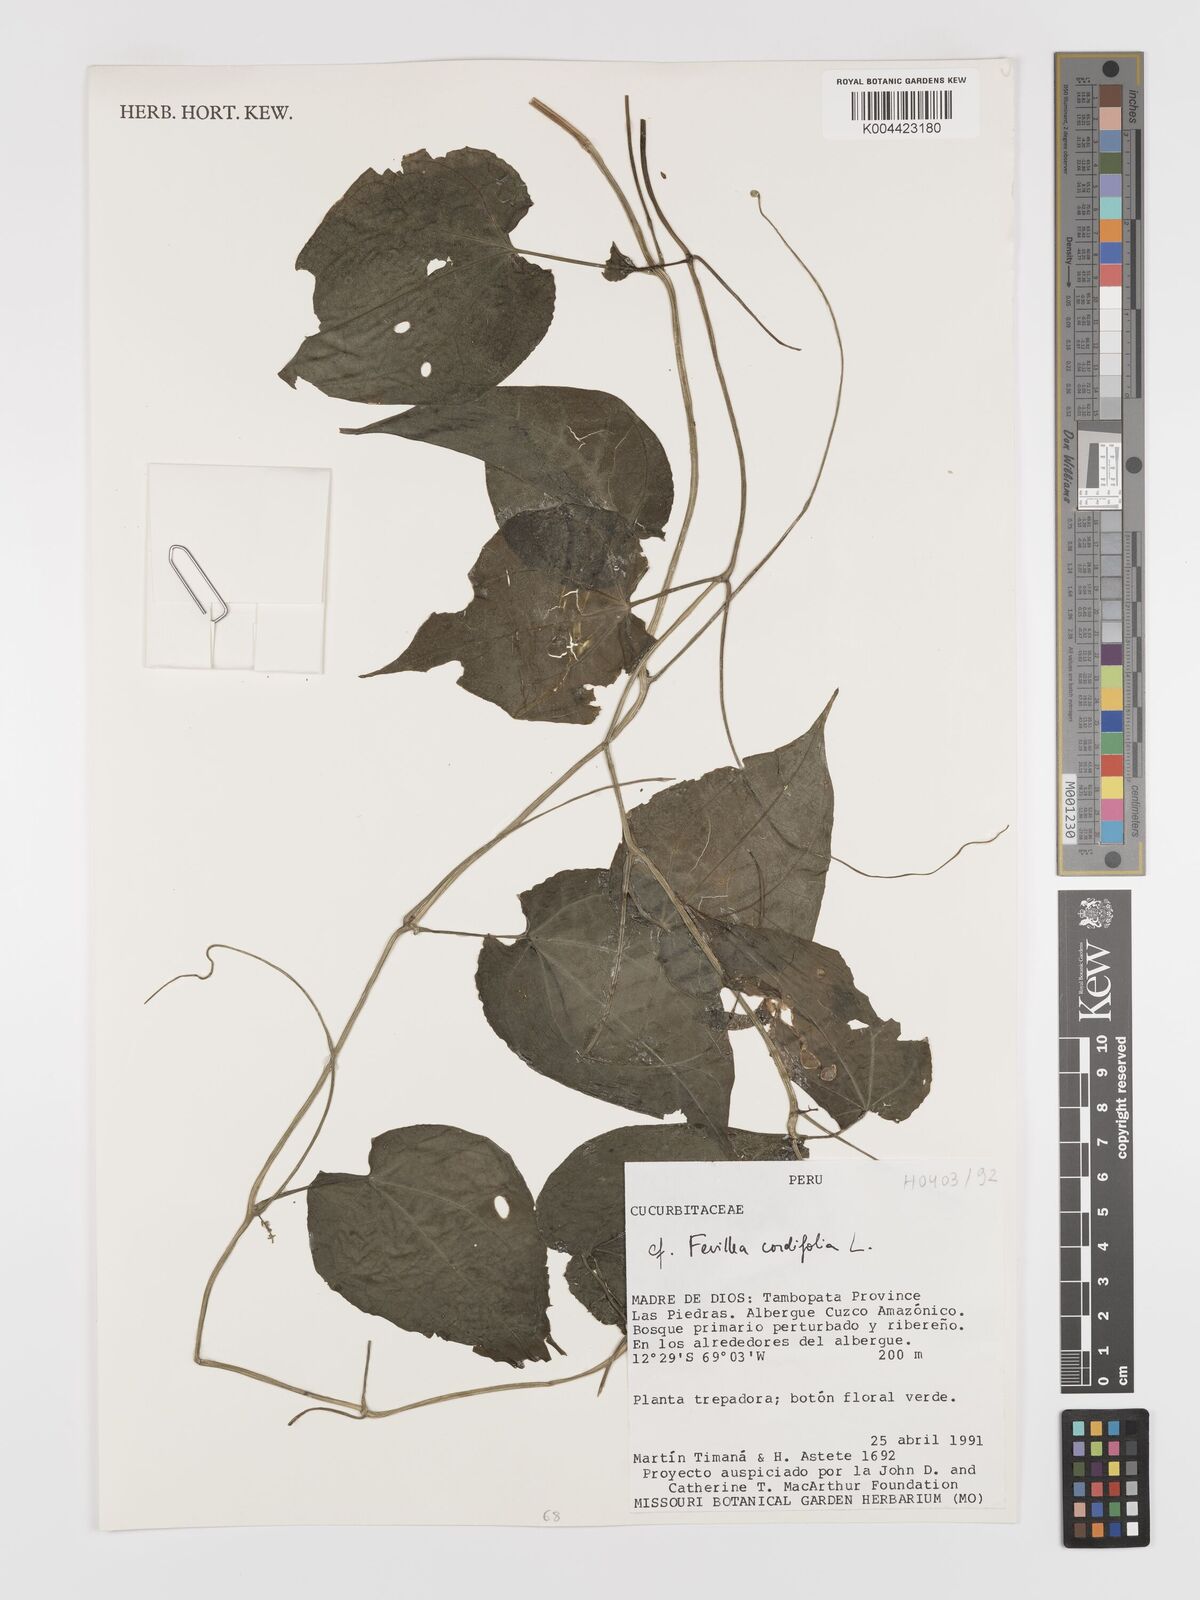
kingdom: Plantae
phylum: Tracheophyta
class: Magnoliopsida
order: Cucurbitales
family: Cucurbitaceae
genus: Fevillea
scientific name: Fevillea
